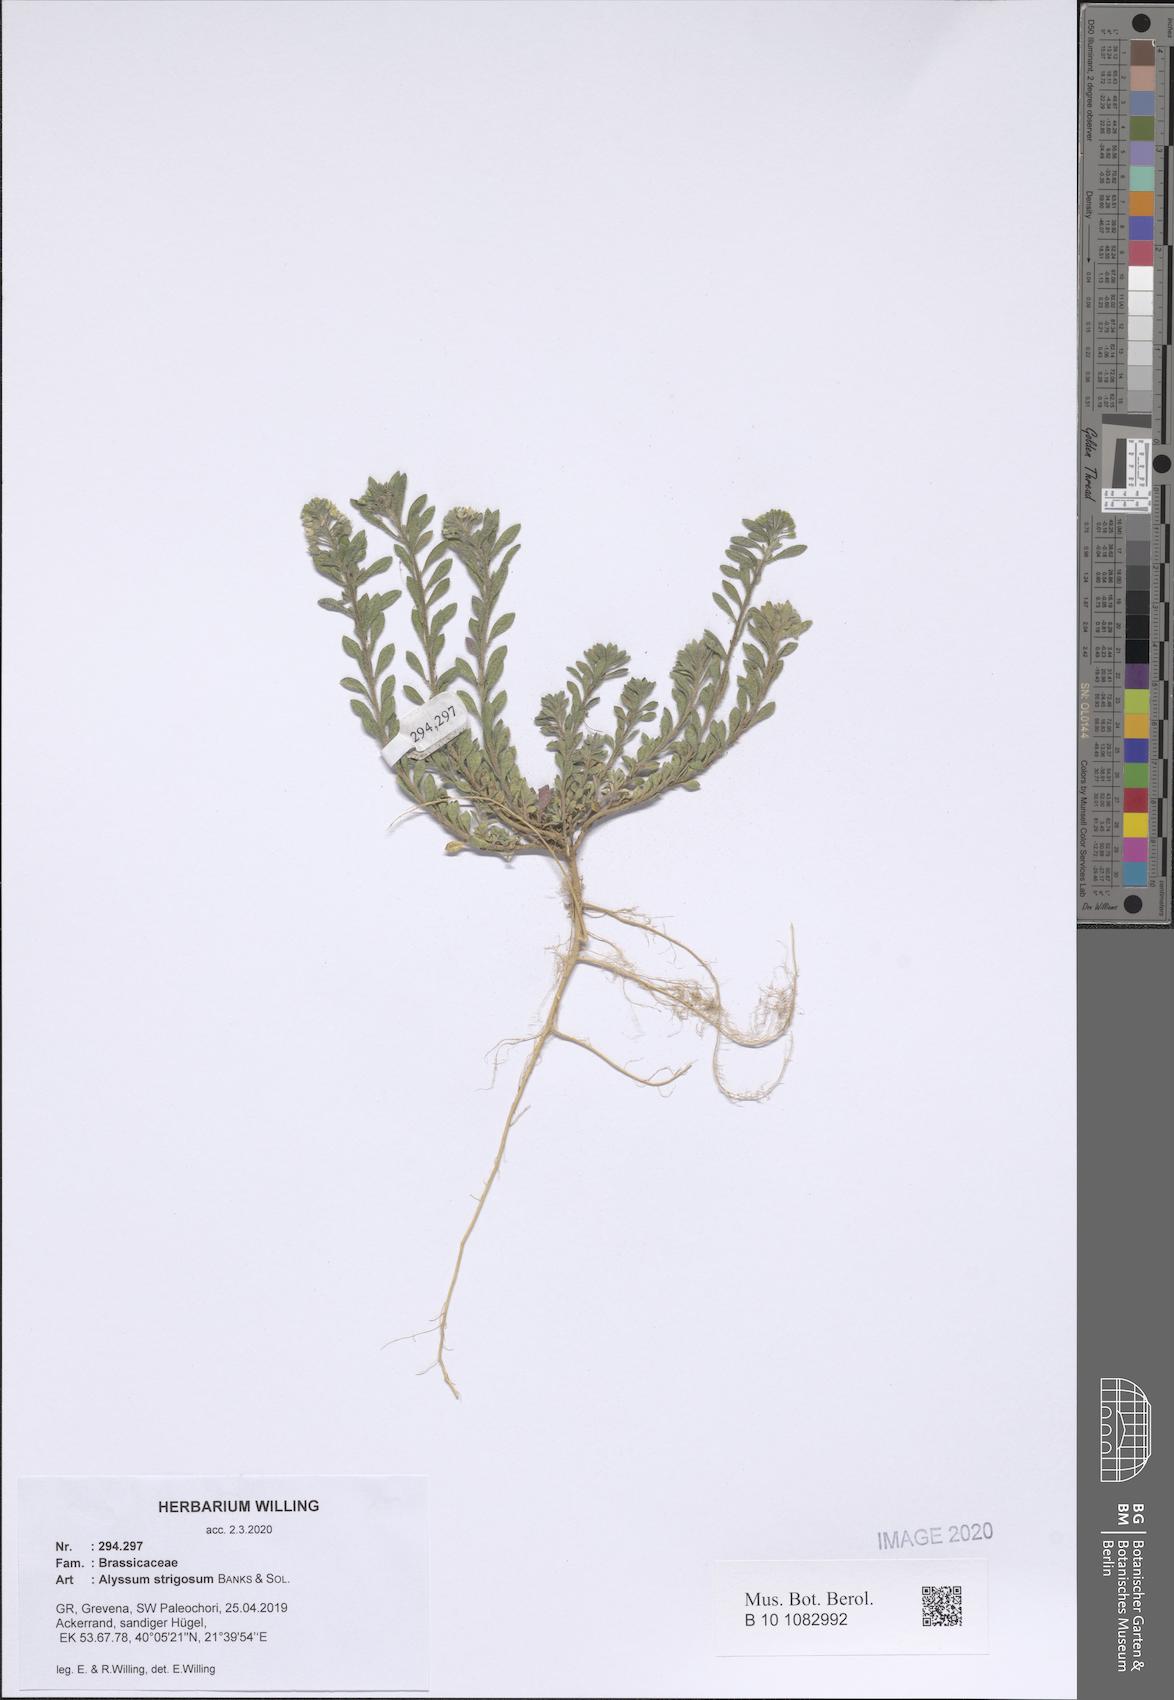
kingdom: Plantae
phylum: Tracheophyta
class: Magnoliopsida
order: Brassicales
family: Brassicaceae
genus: Alyssum
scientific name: Alyssum strigosum
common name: Alyssum
